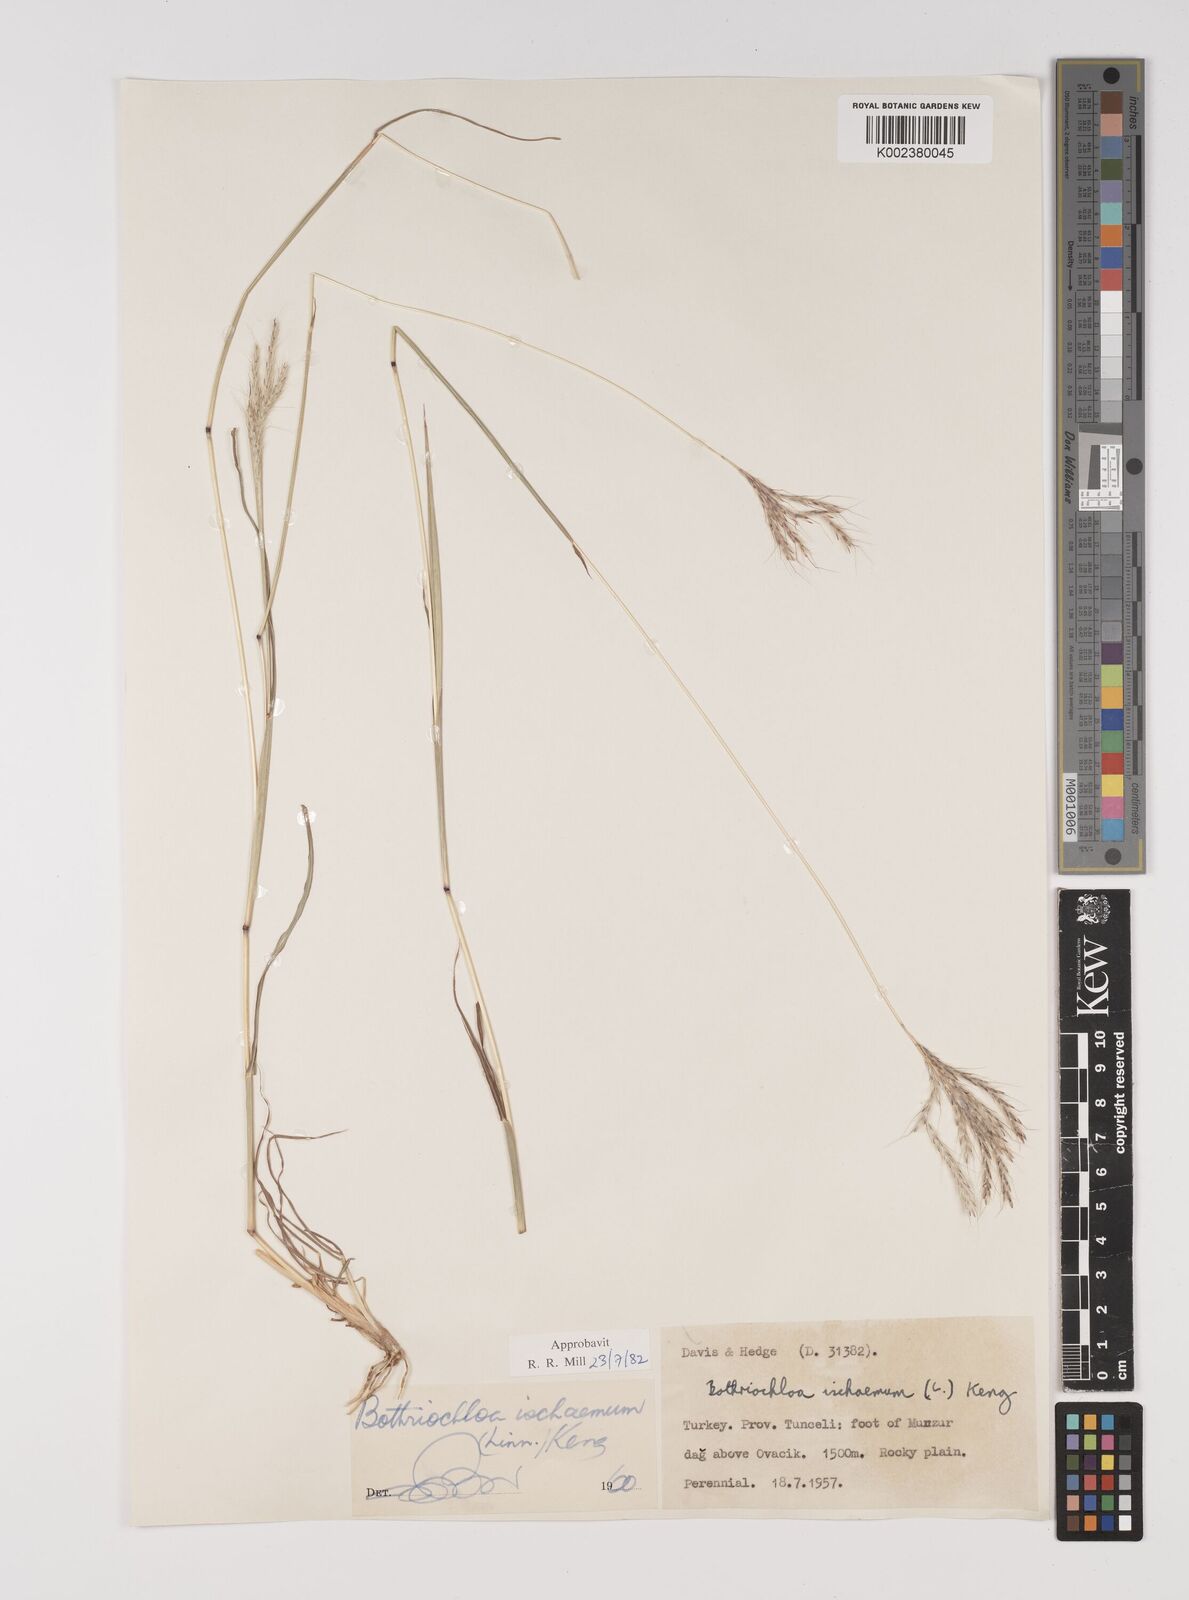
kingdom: Plantae
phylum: Tracheophyta
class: Liliopsida
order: Poales
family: Poaceae
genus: Bothriochloa
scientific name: Bothriochloa ischaemum
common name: Yellow bluestem
